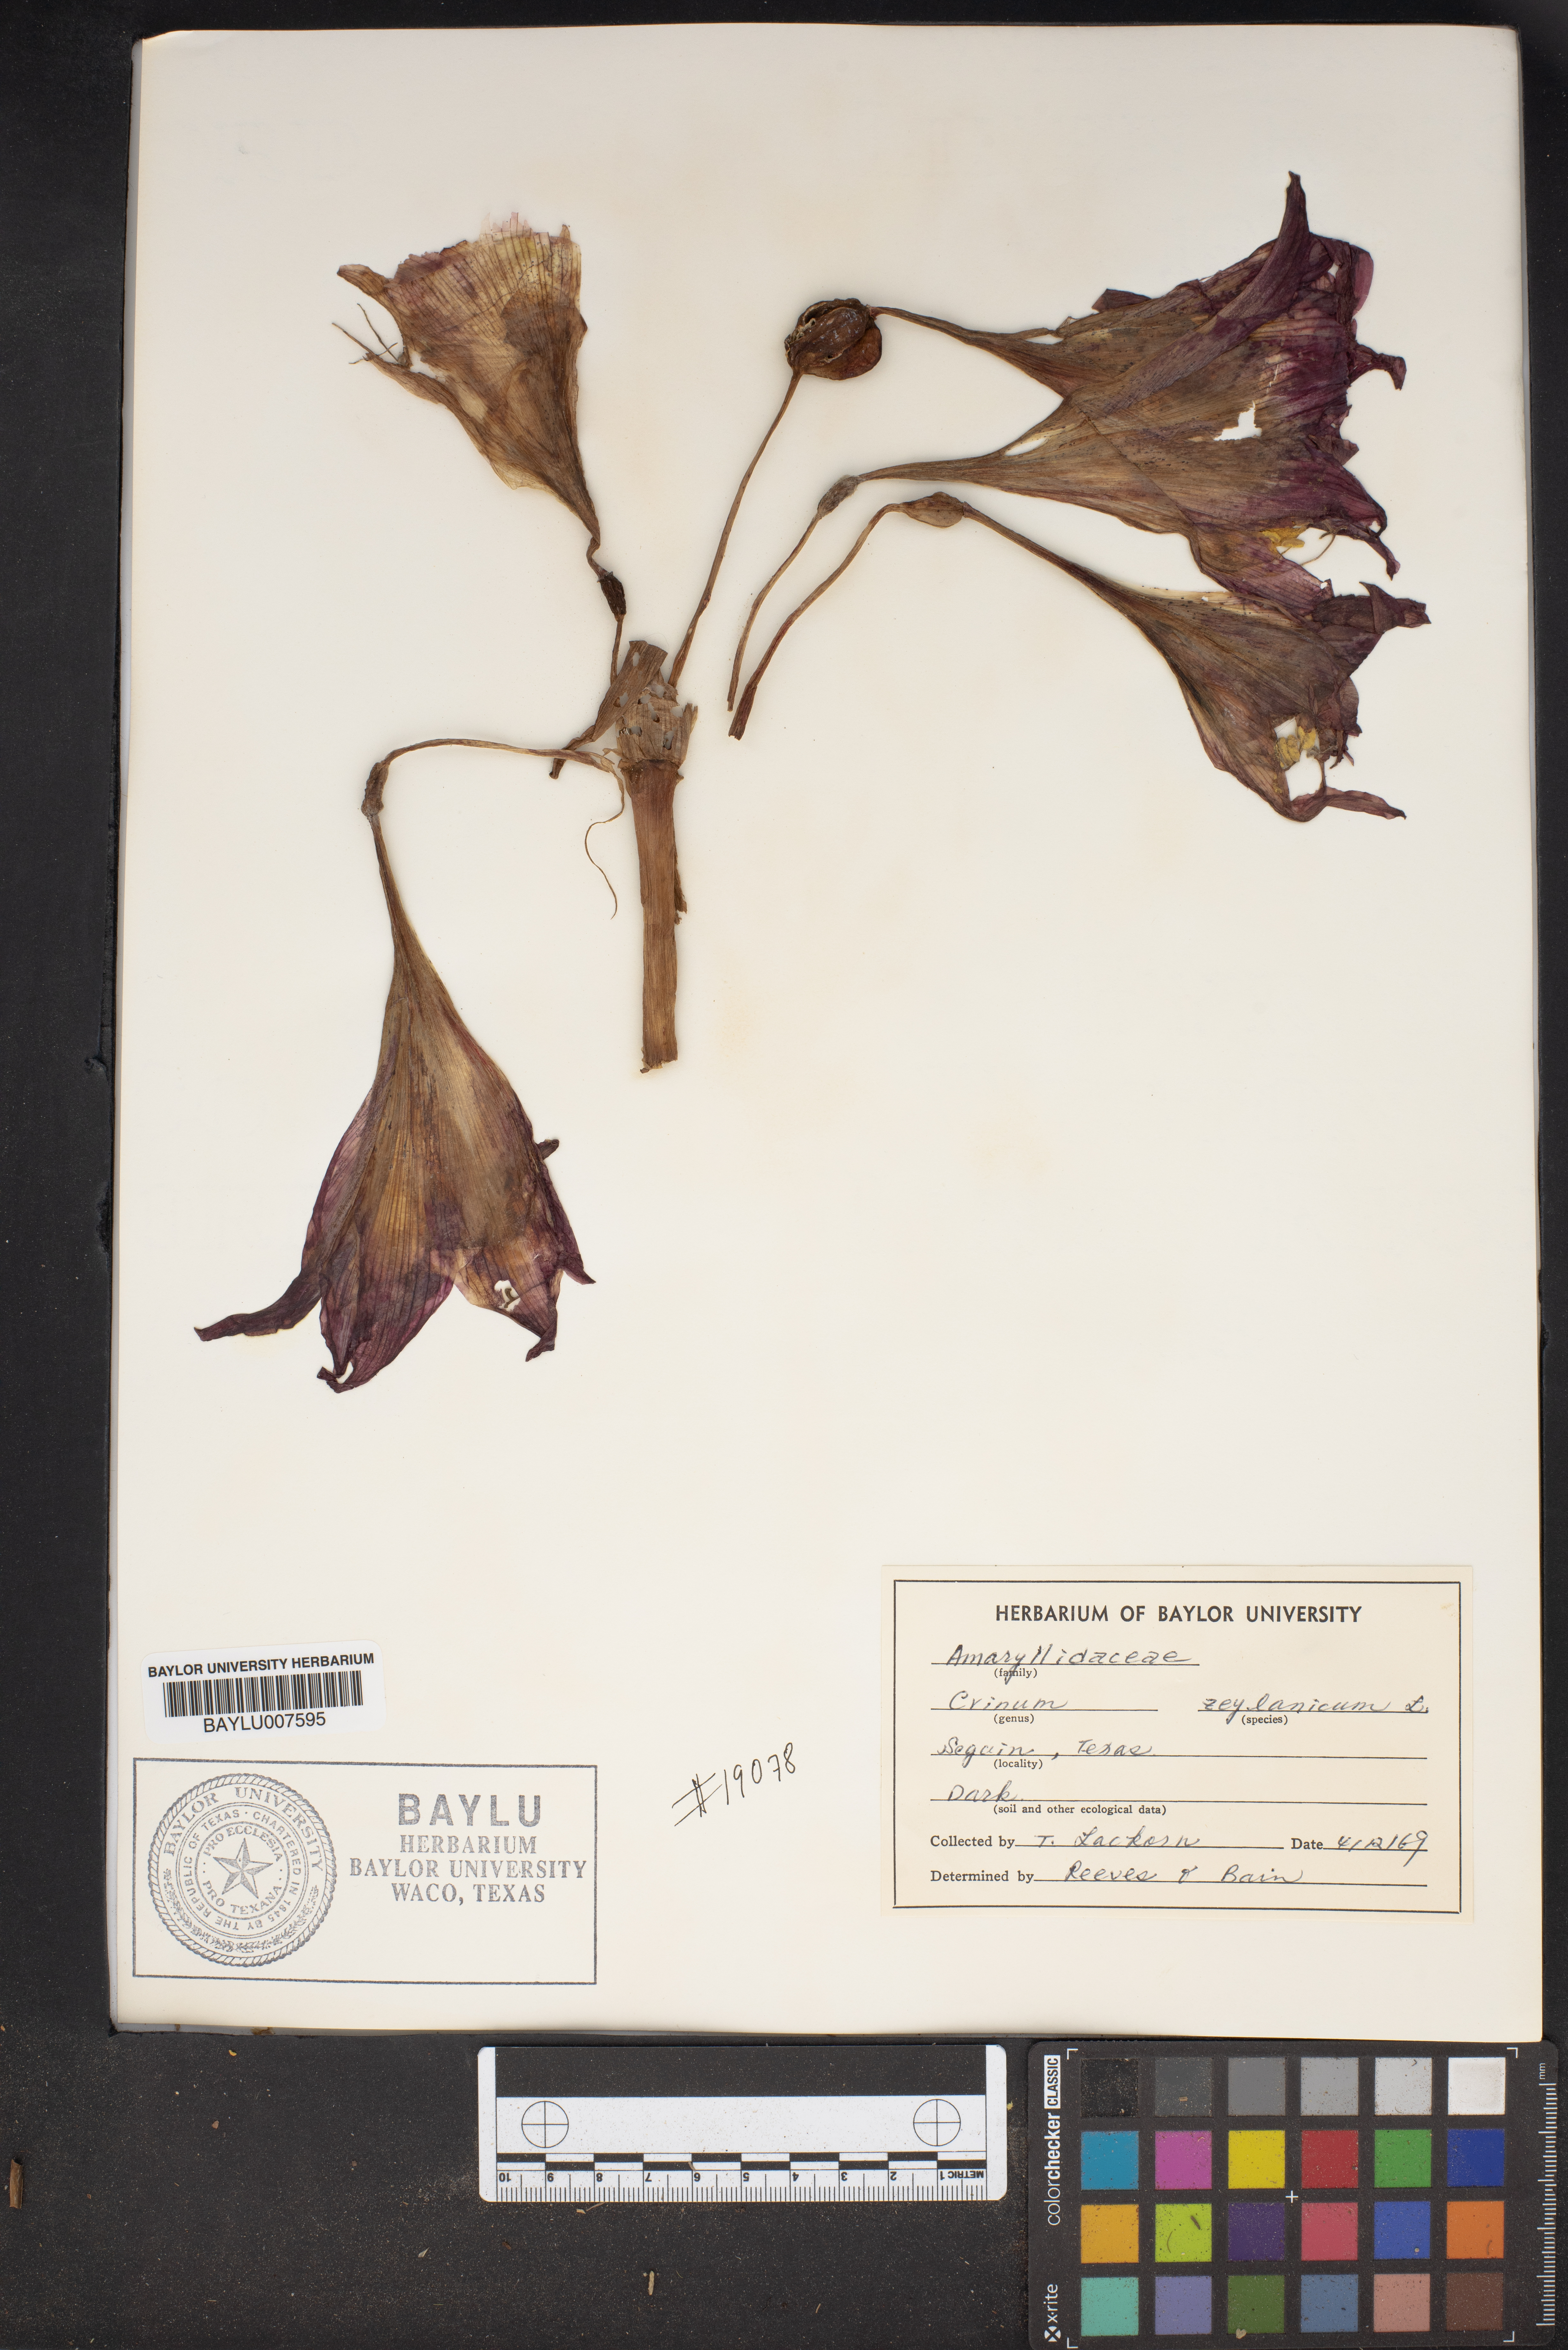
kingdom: Plantae
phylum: Tracheophyta
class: Liliopsida
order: Asparagales
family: Amaryllidaceae
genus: Crinum
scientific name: Crinum zeylanicum
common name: Ceylon swamplily
